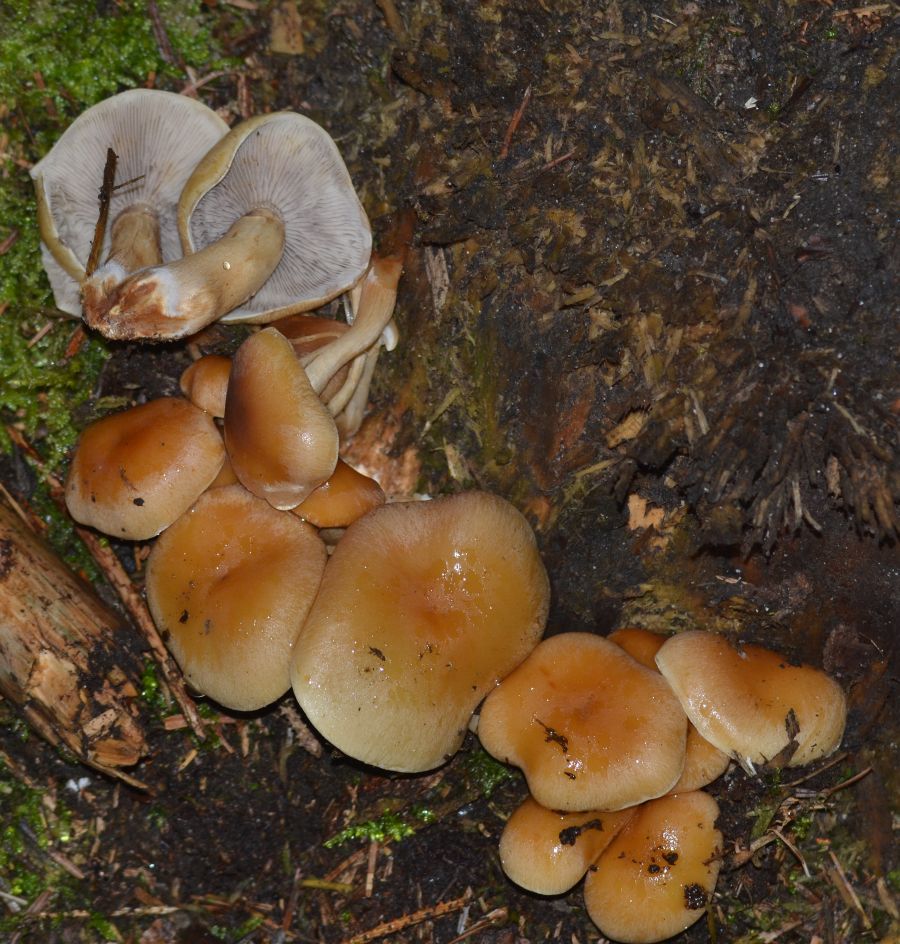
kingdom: Fungi
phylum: Basidiomycota
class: Agaricomycetes
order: Agaricales
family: Strophariaceae
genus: Hypholoma
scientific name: Hypholoma capnoides
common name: gran-svovlhat
